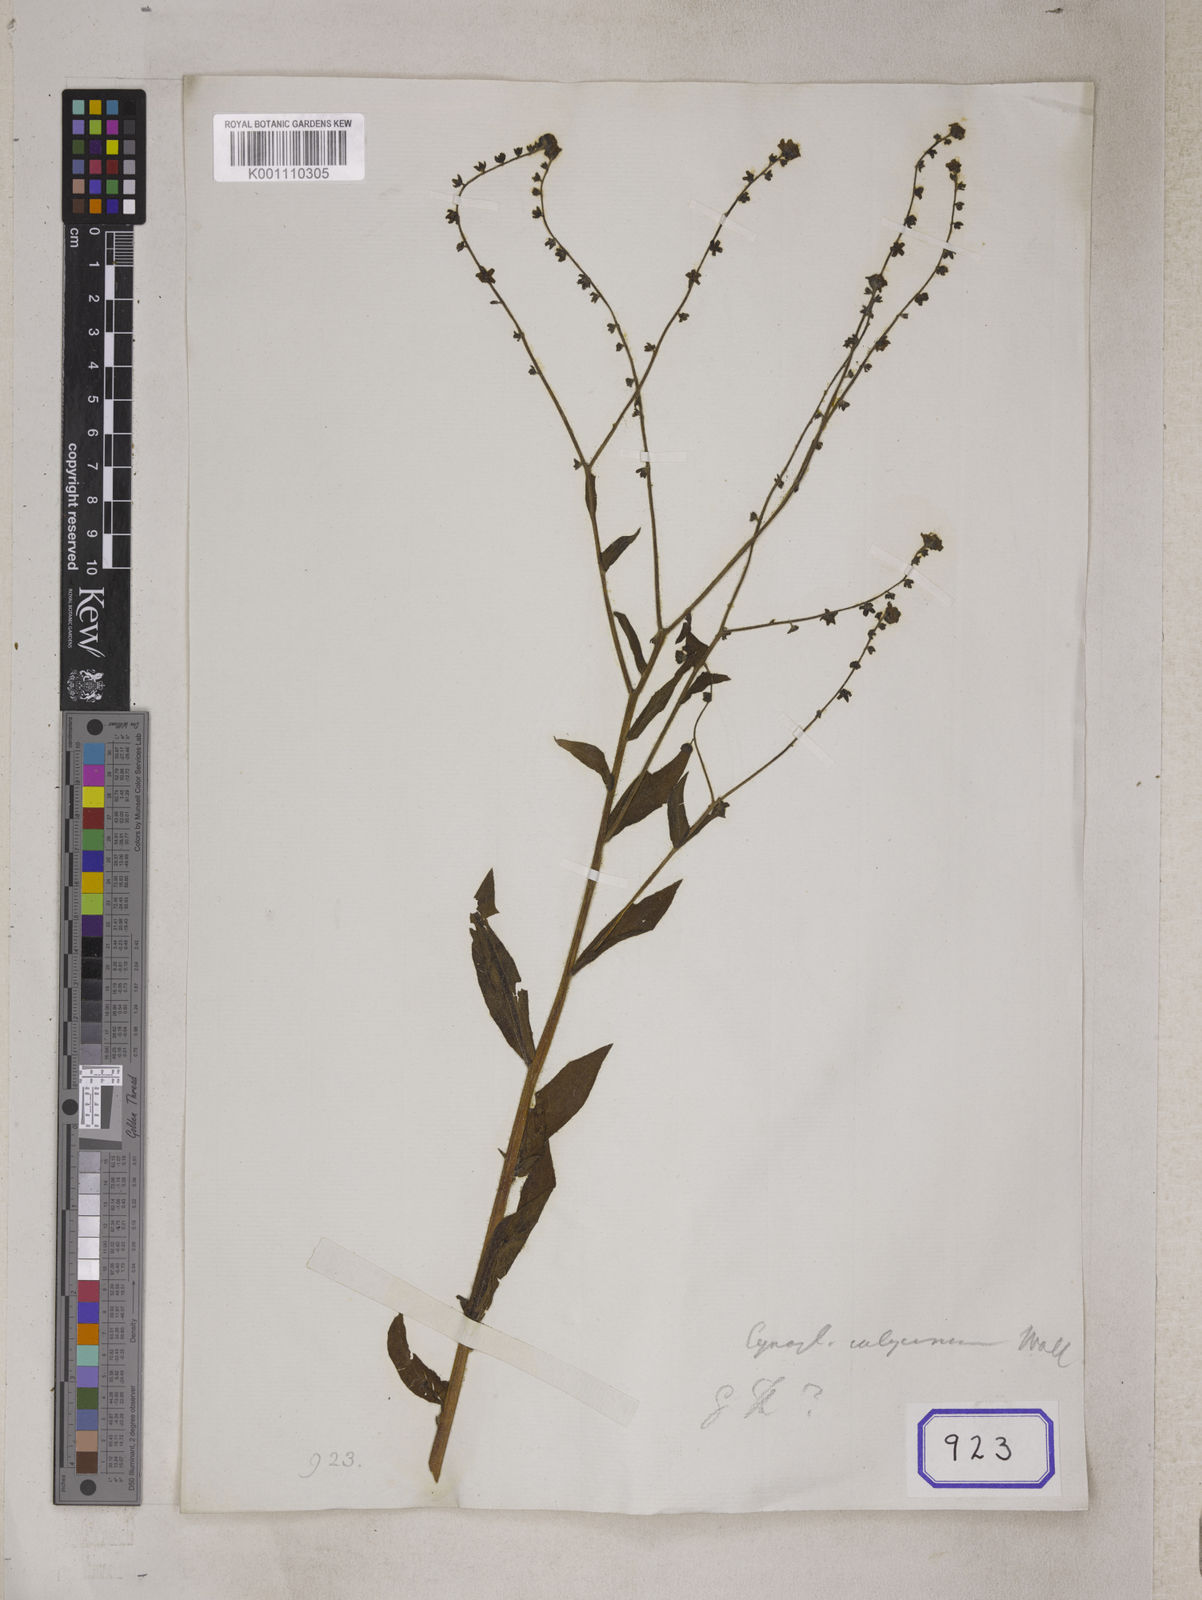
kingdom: Plantae
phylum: Tracheophyta
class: Magnoliopsida
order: Boraginales
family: Boraginaceae
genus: Cynoglossum
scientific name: Cynoglossum
